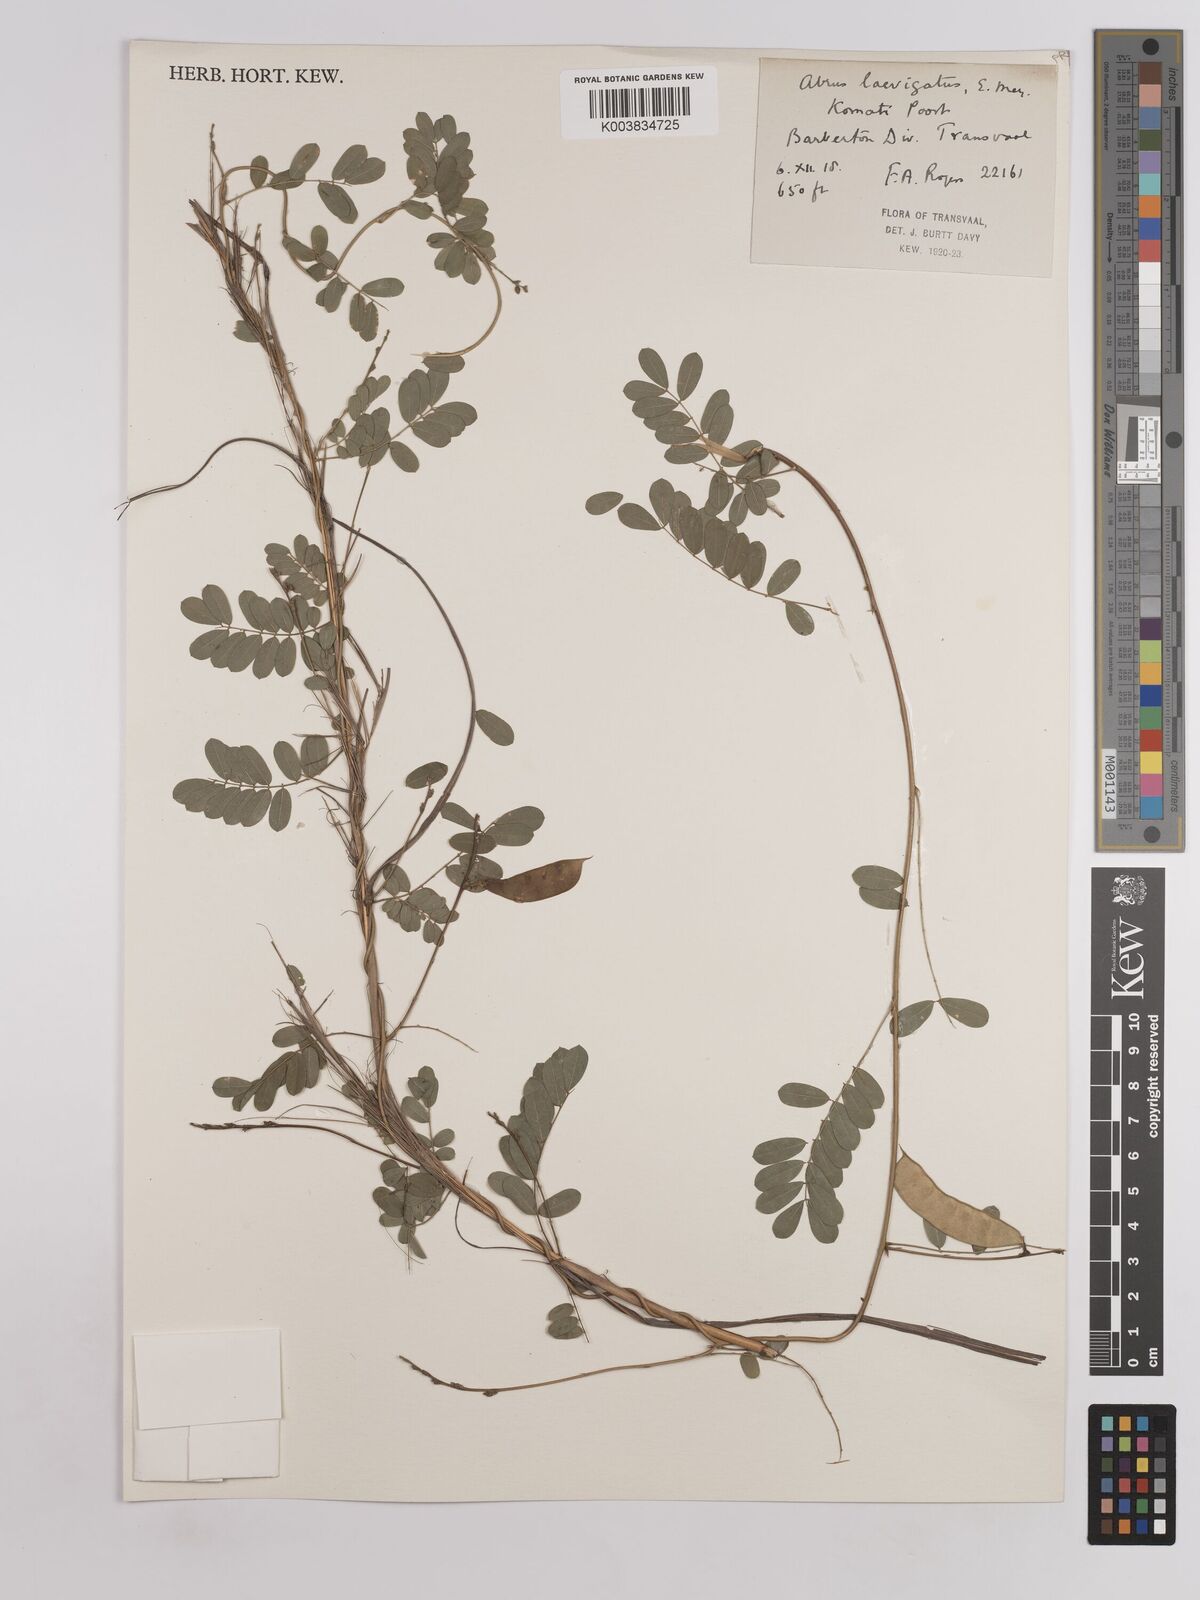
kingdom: Plantae
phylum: Tracheophyta
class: Magnoliopsida
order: Fabales
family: Fabaceae
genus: Abrus
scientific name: Abrus laevigatus
